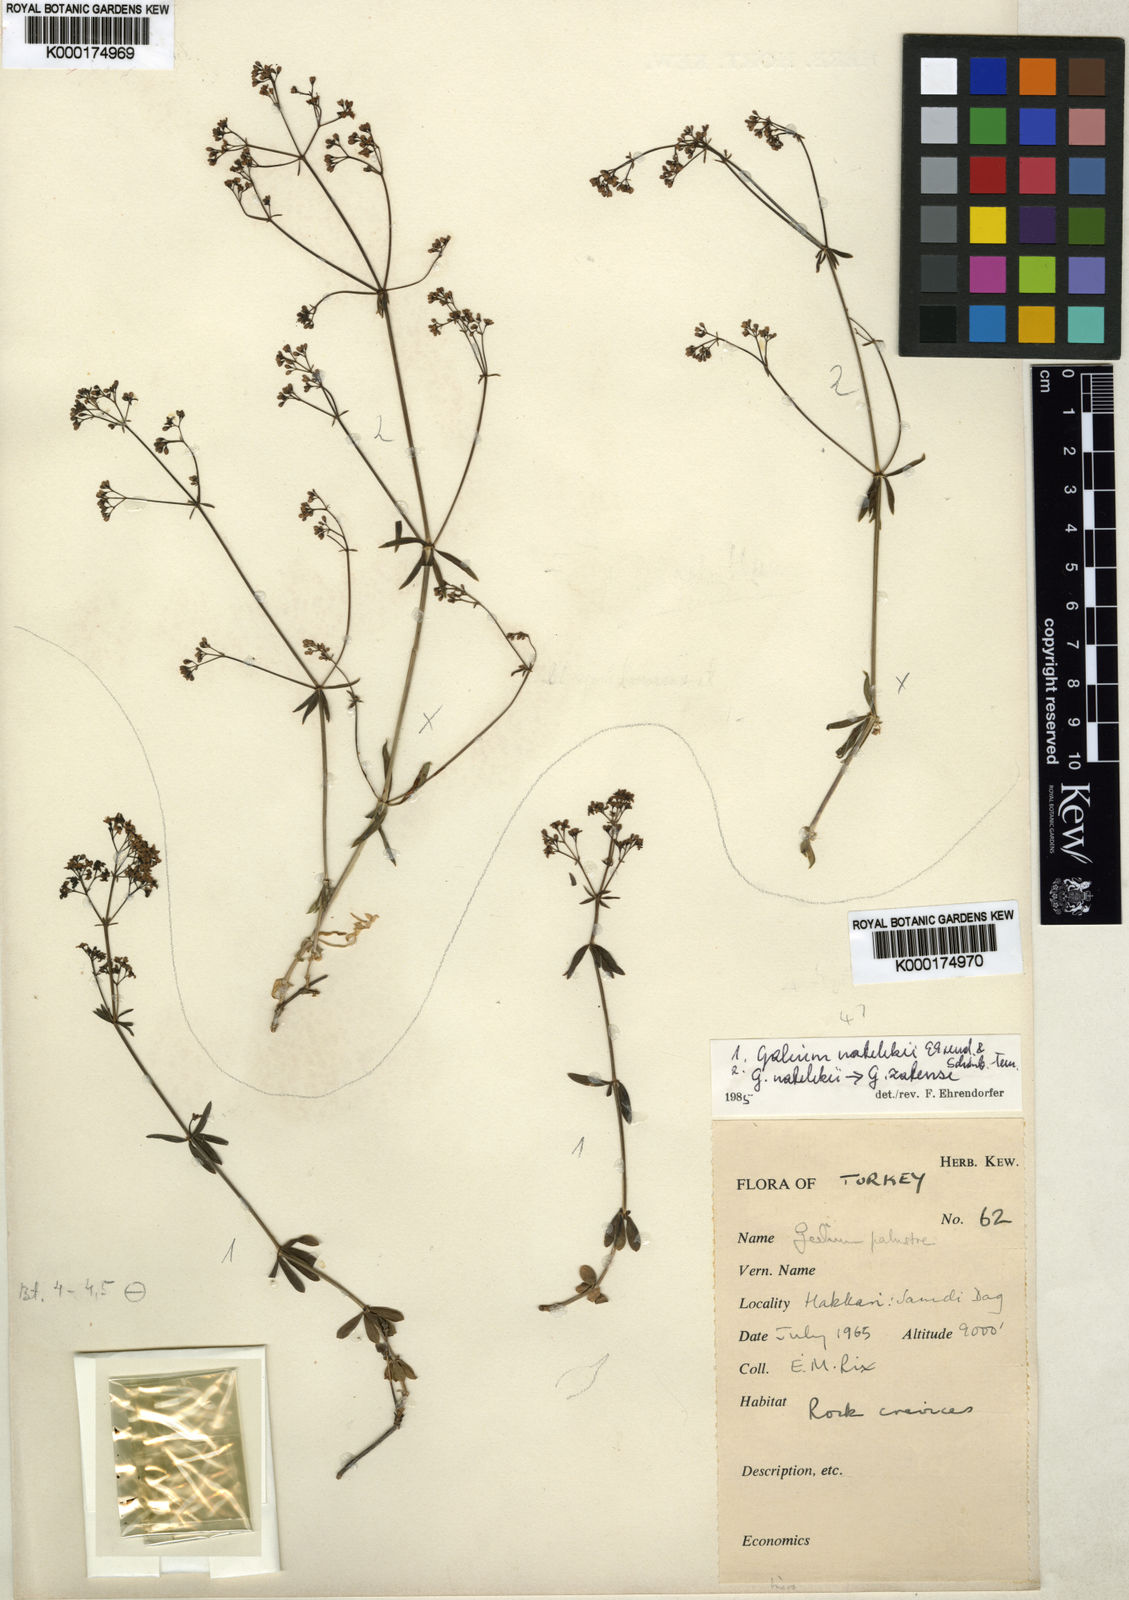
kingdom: Plantae
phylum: Tracheophyta
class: Magnoliopsida
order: Gentianales
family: Rubiaceae
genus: Galium
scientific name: Galium
